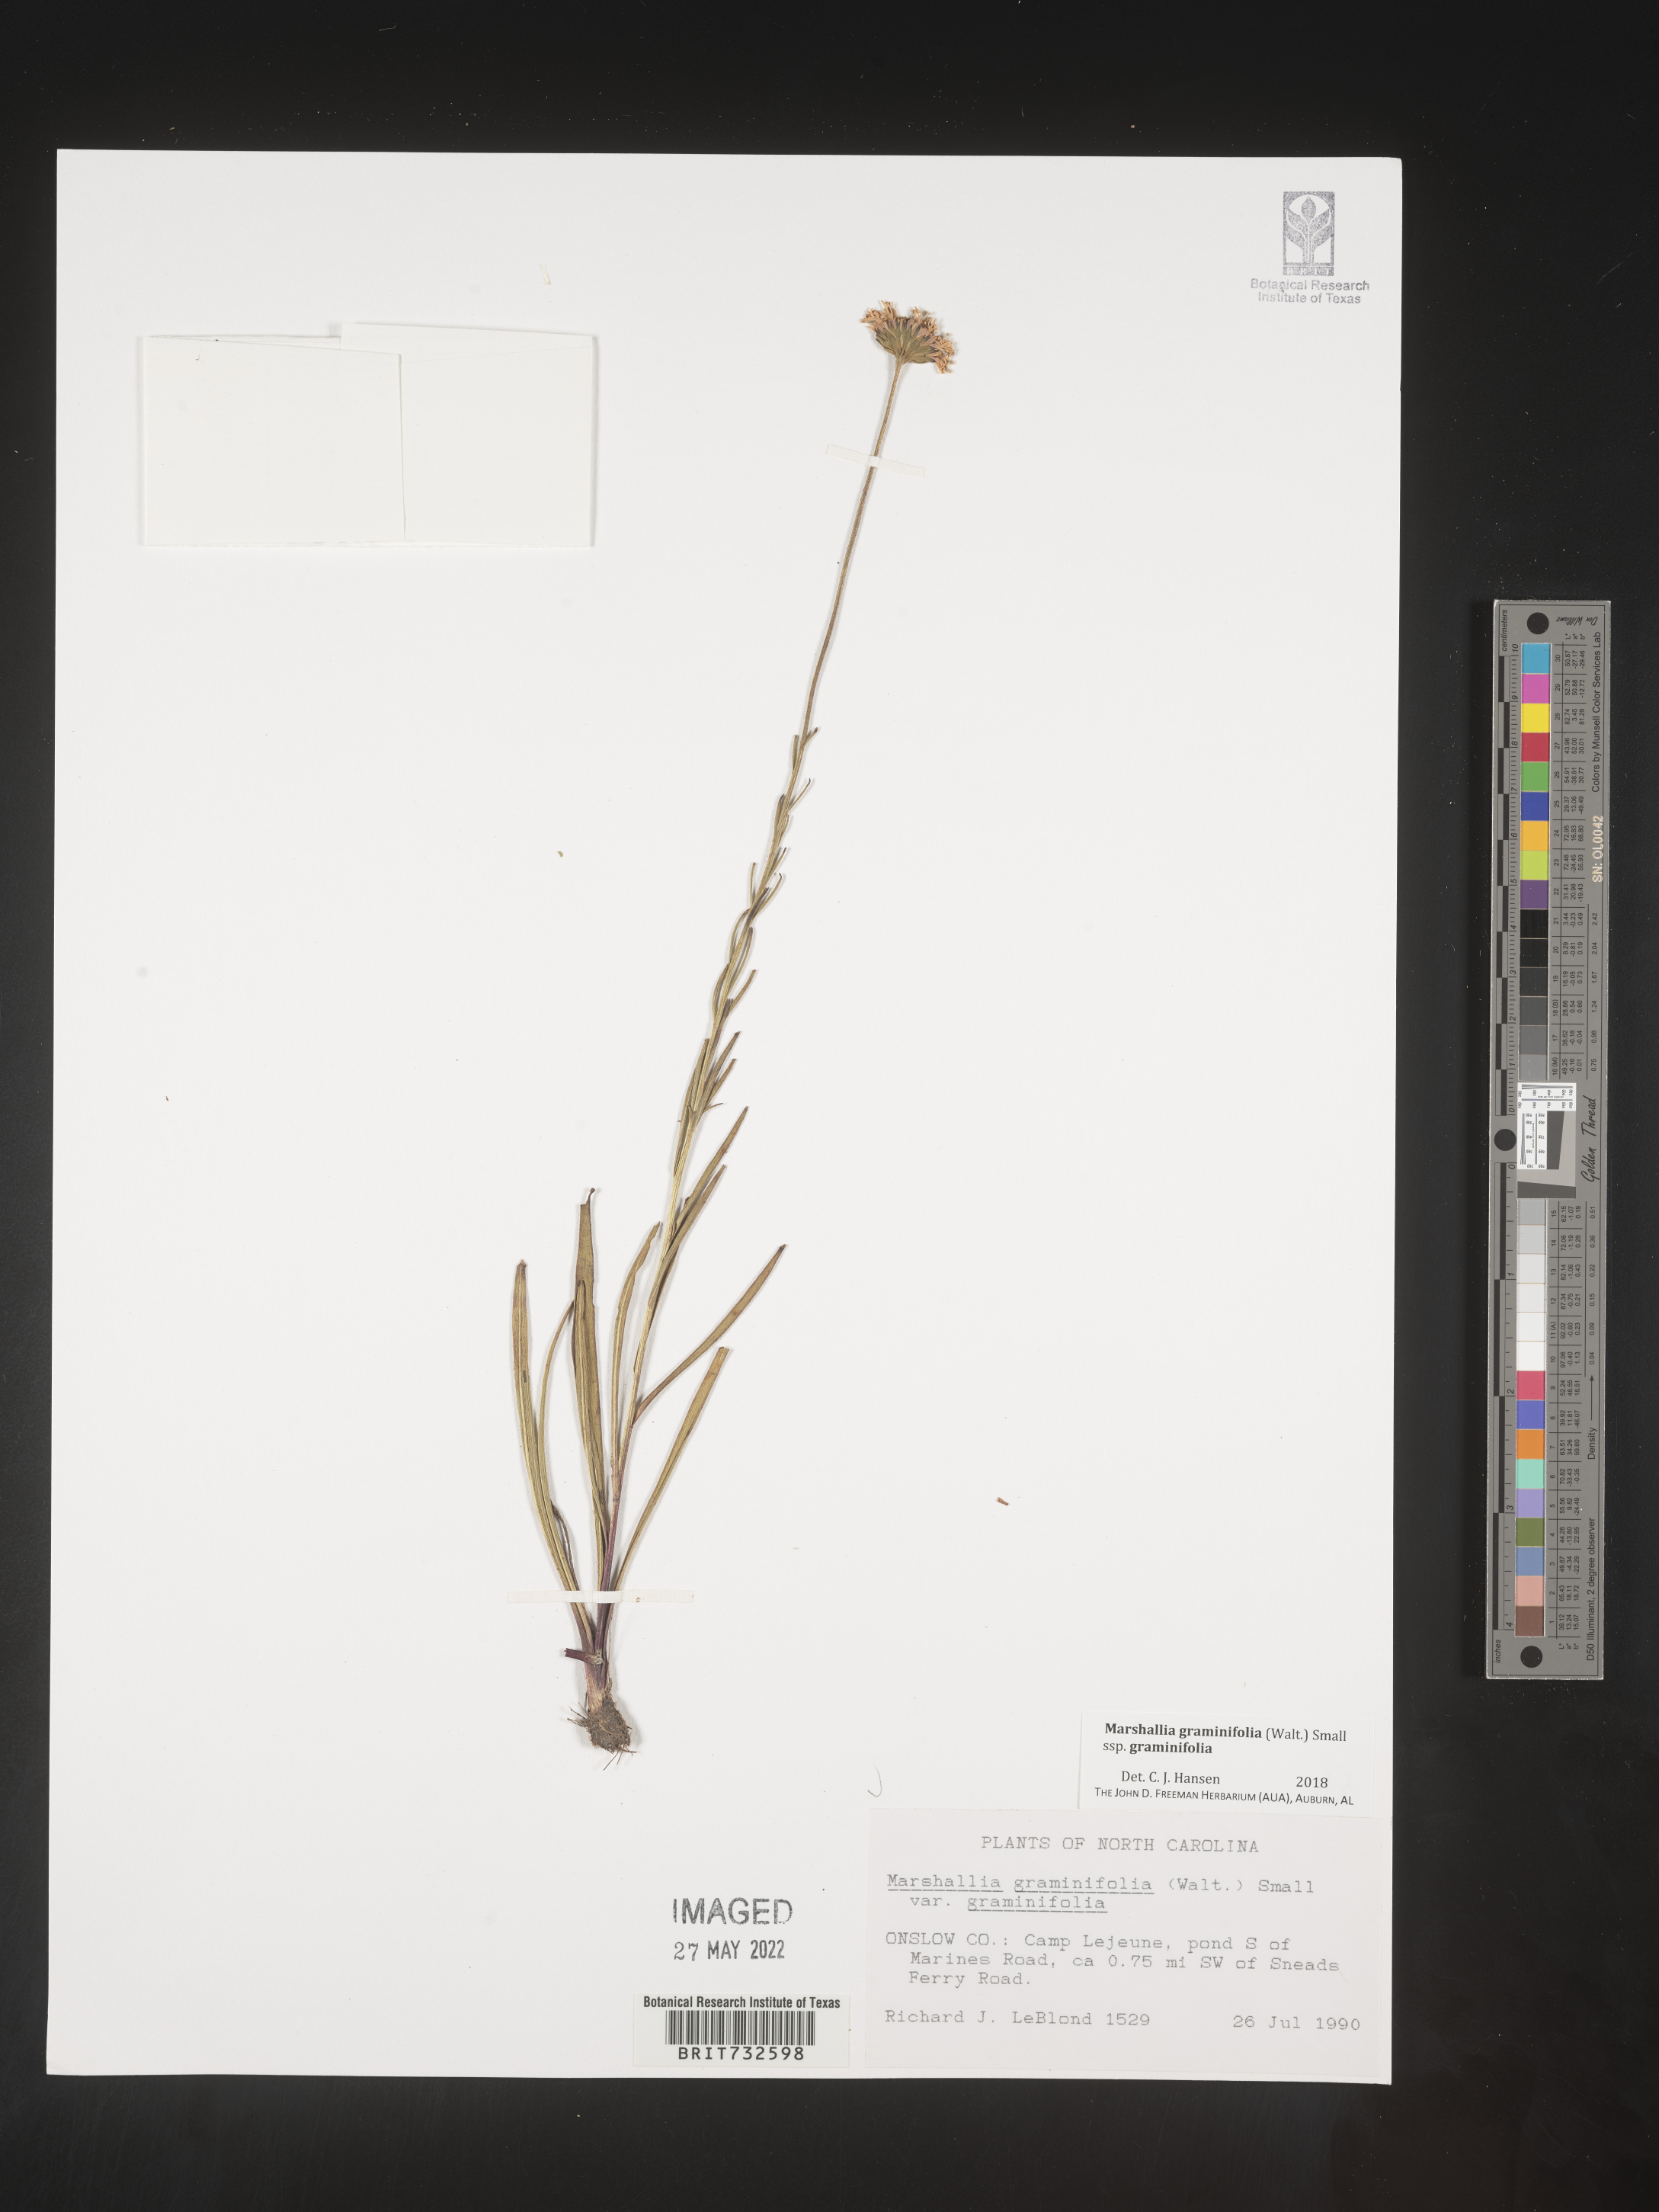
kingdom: Plantae
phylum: Tracheophyta
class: Magnoliopsida
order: Asterales
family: Asteraceae
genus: Marshallia
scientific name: Marshallia graminifolia
